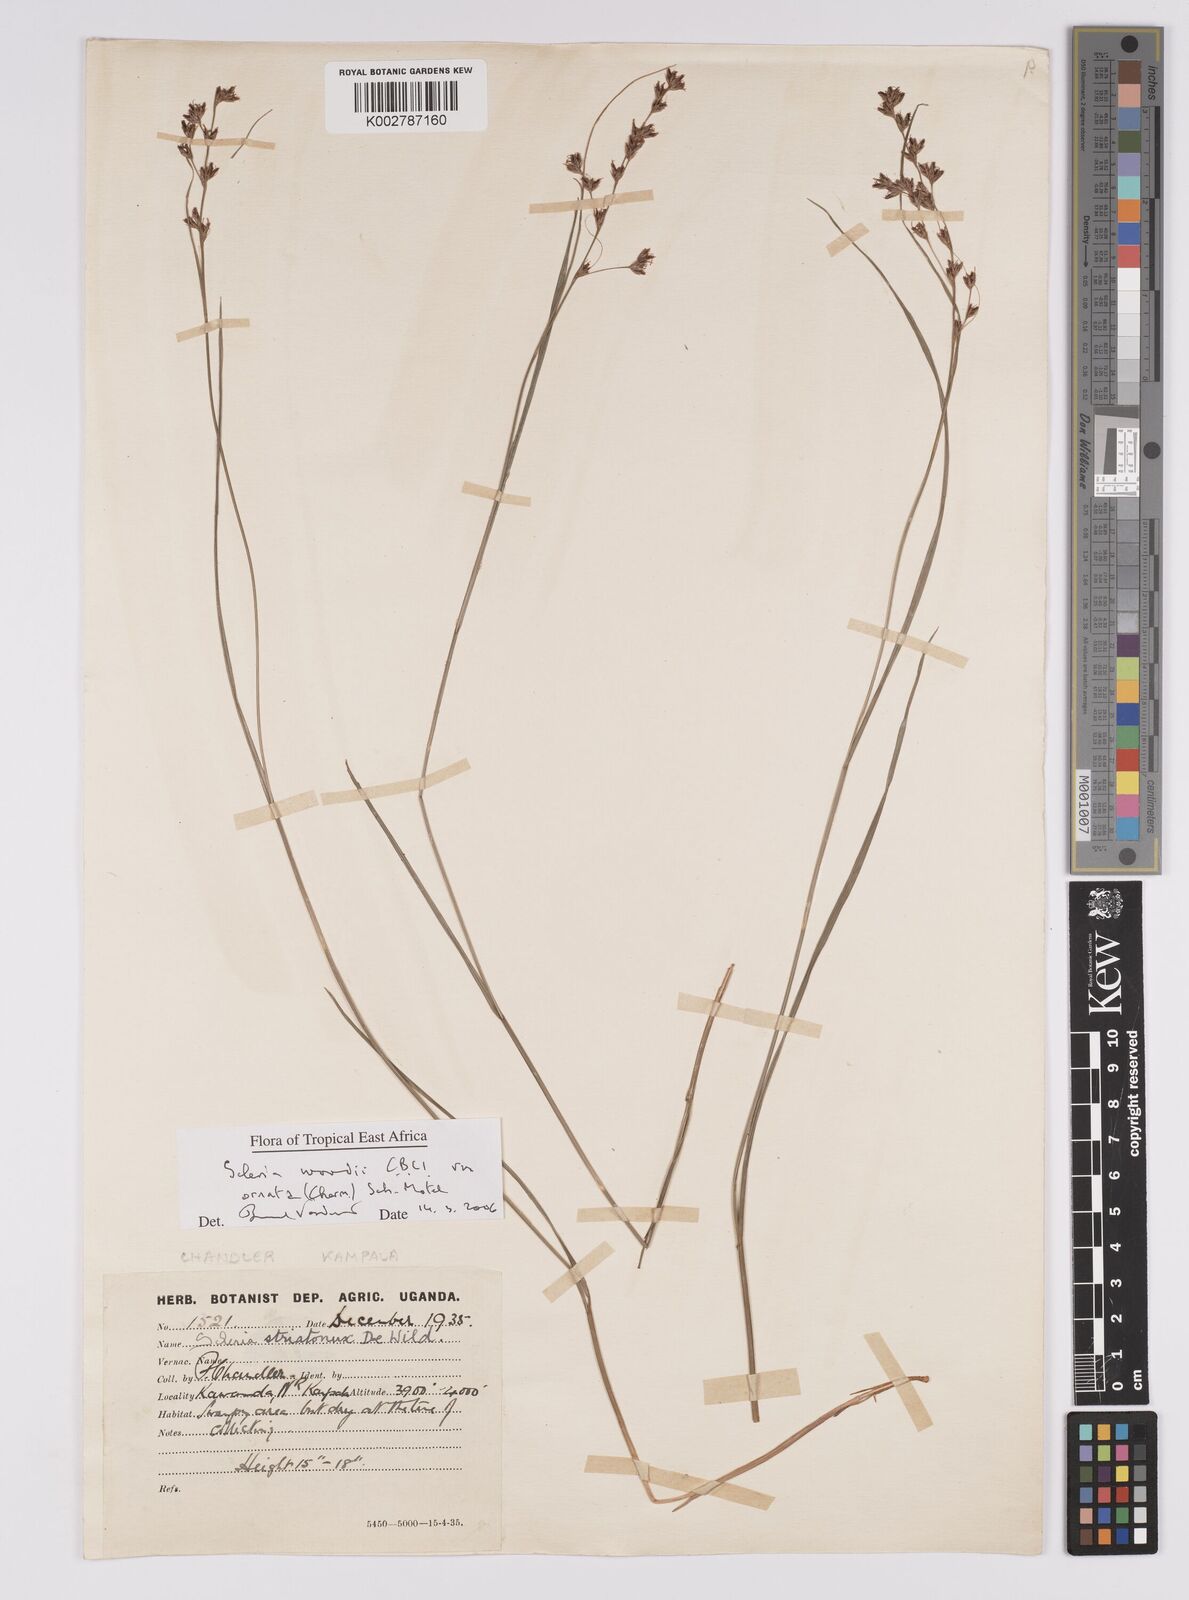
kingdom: Plantae
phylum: Tracheophyta
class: Liliopsida
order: Poales
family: Cyperaceae
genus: Scleria
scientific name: Scleria woodii
